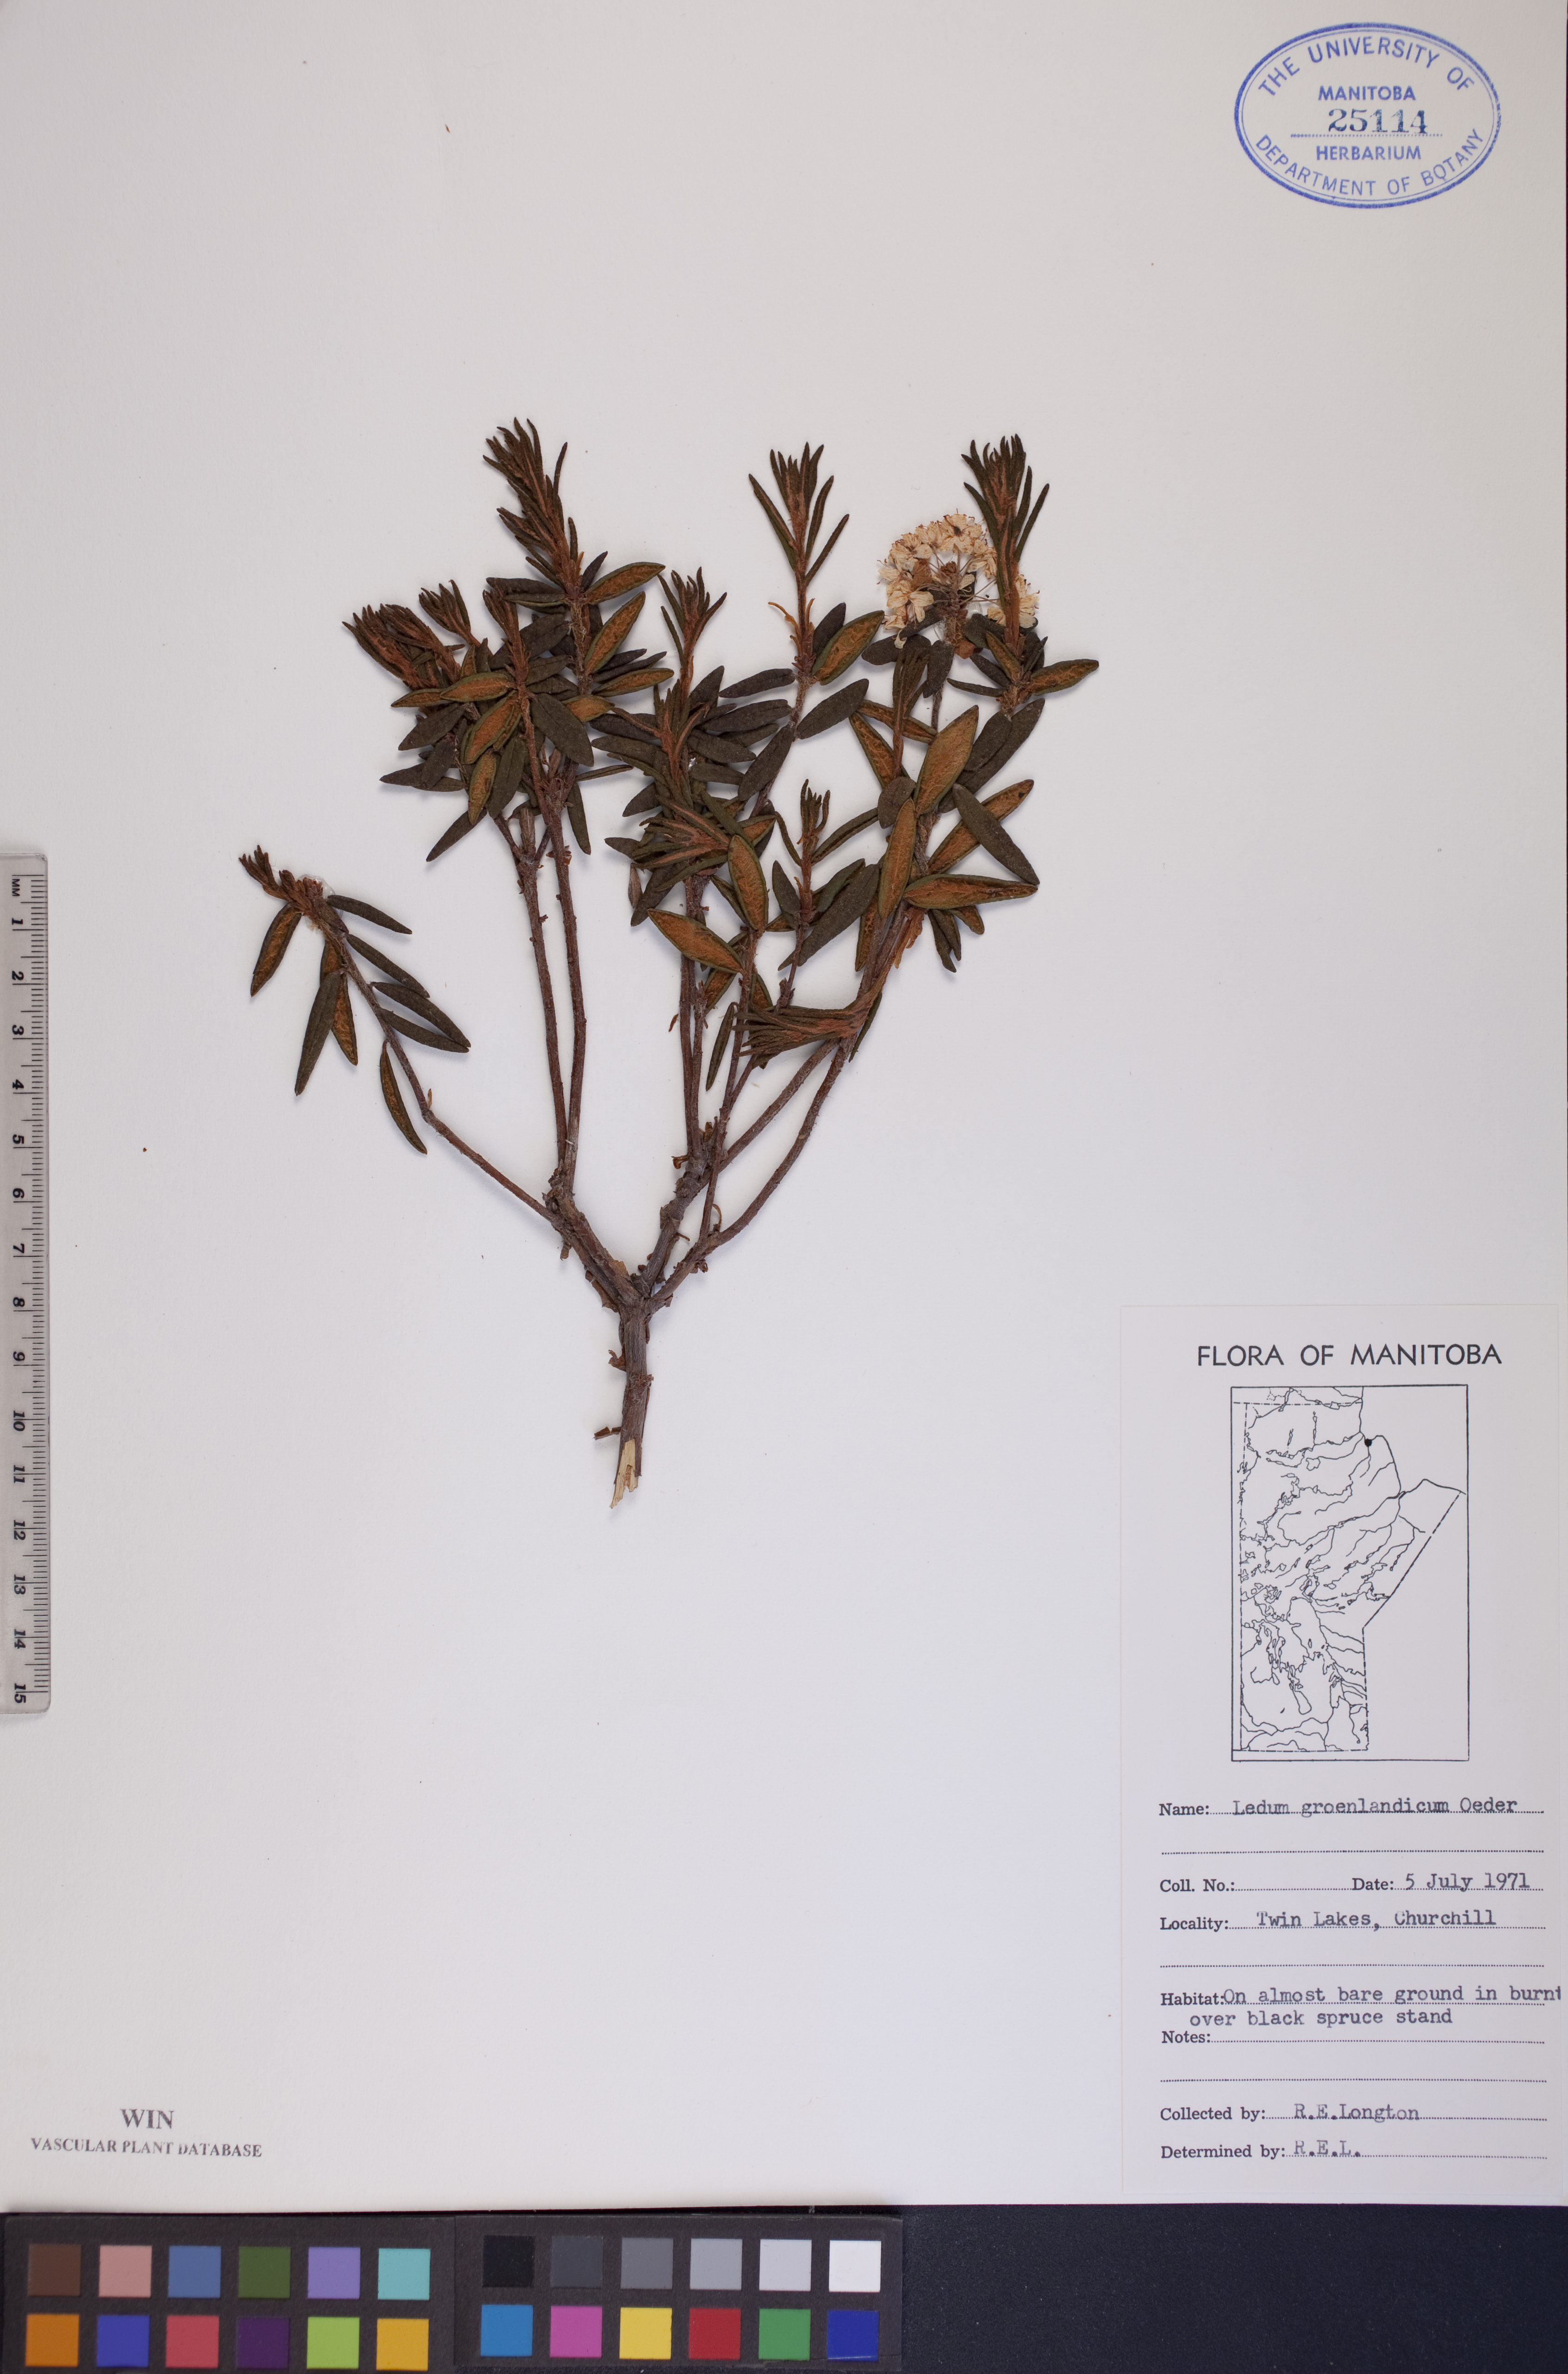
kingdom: Plantae
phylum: Tracheophyta
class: Magnoliopsida
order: Ericales
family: Ericaceae
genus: Rhododendron
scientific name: Rhododendron groenlandicum
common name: Bog labrador tea
